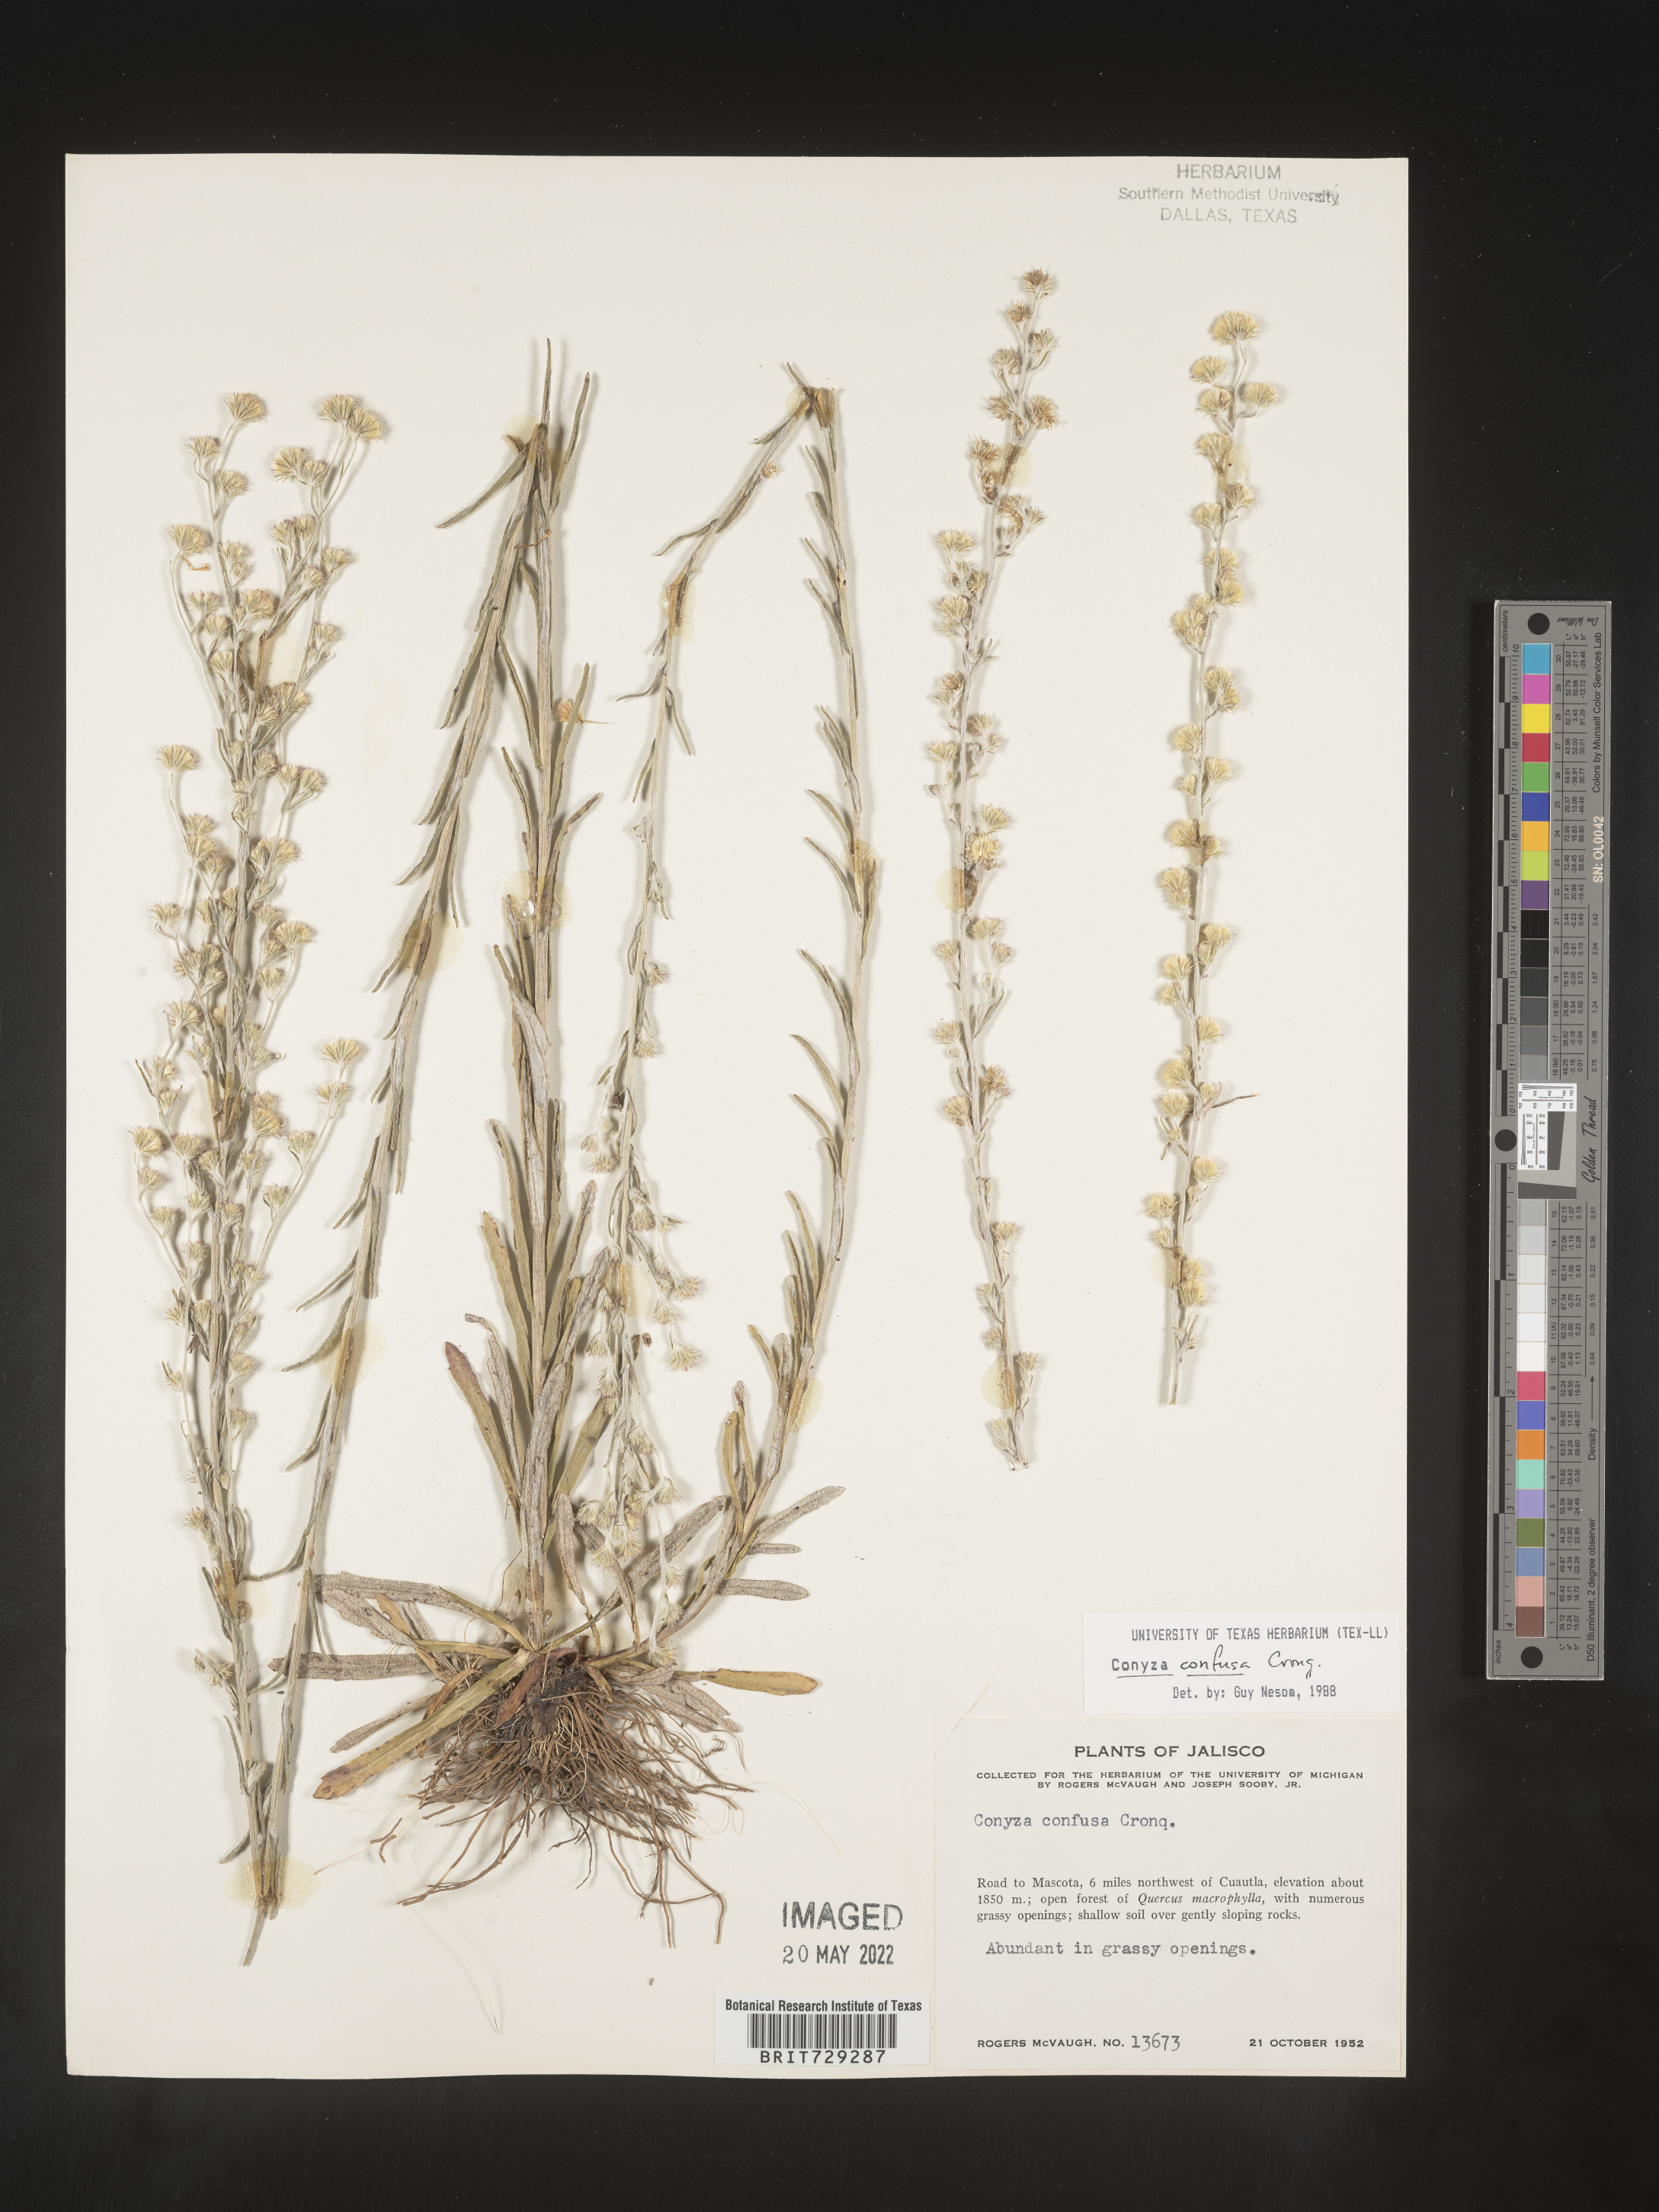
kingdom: Plantae
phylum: Tracheophyta
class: Magnoliopsida
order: Asterales
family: Asteraceae
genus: Laennecia
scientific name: Laennecia
